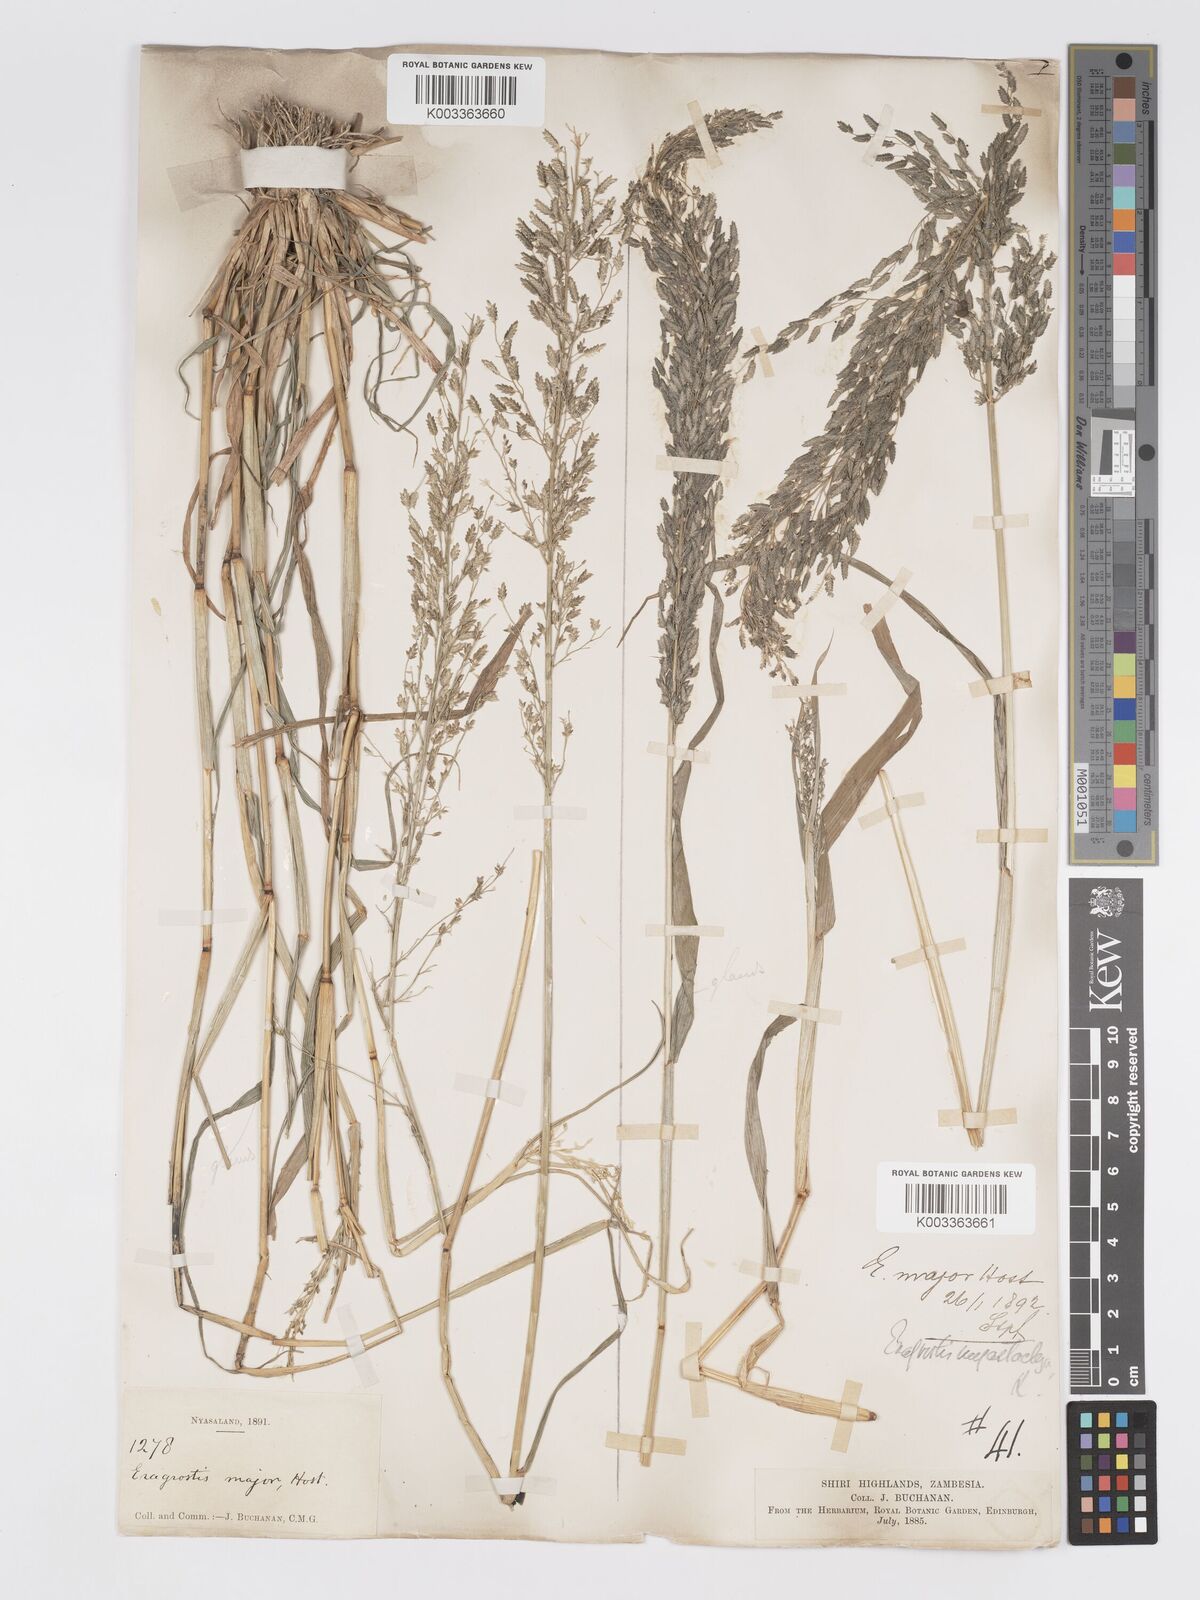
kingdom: Plantae
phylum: Tracheophyta
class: Liliopsida
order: Poales
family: Poaceae
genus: Eragrostis
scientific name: Eragrostis cilianensis
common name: Stinkgrass
